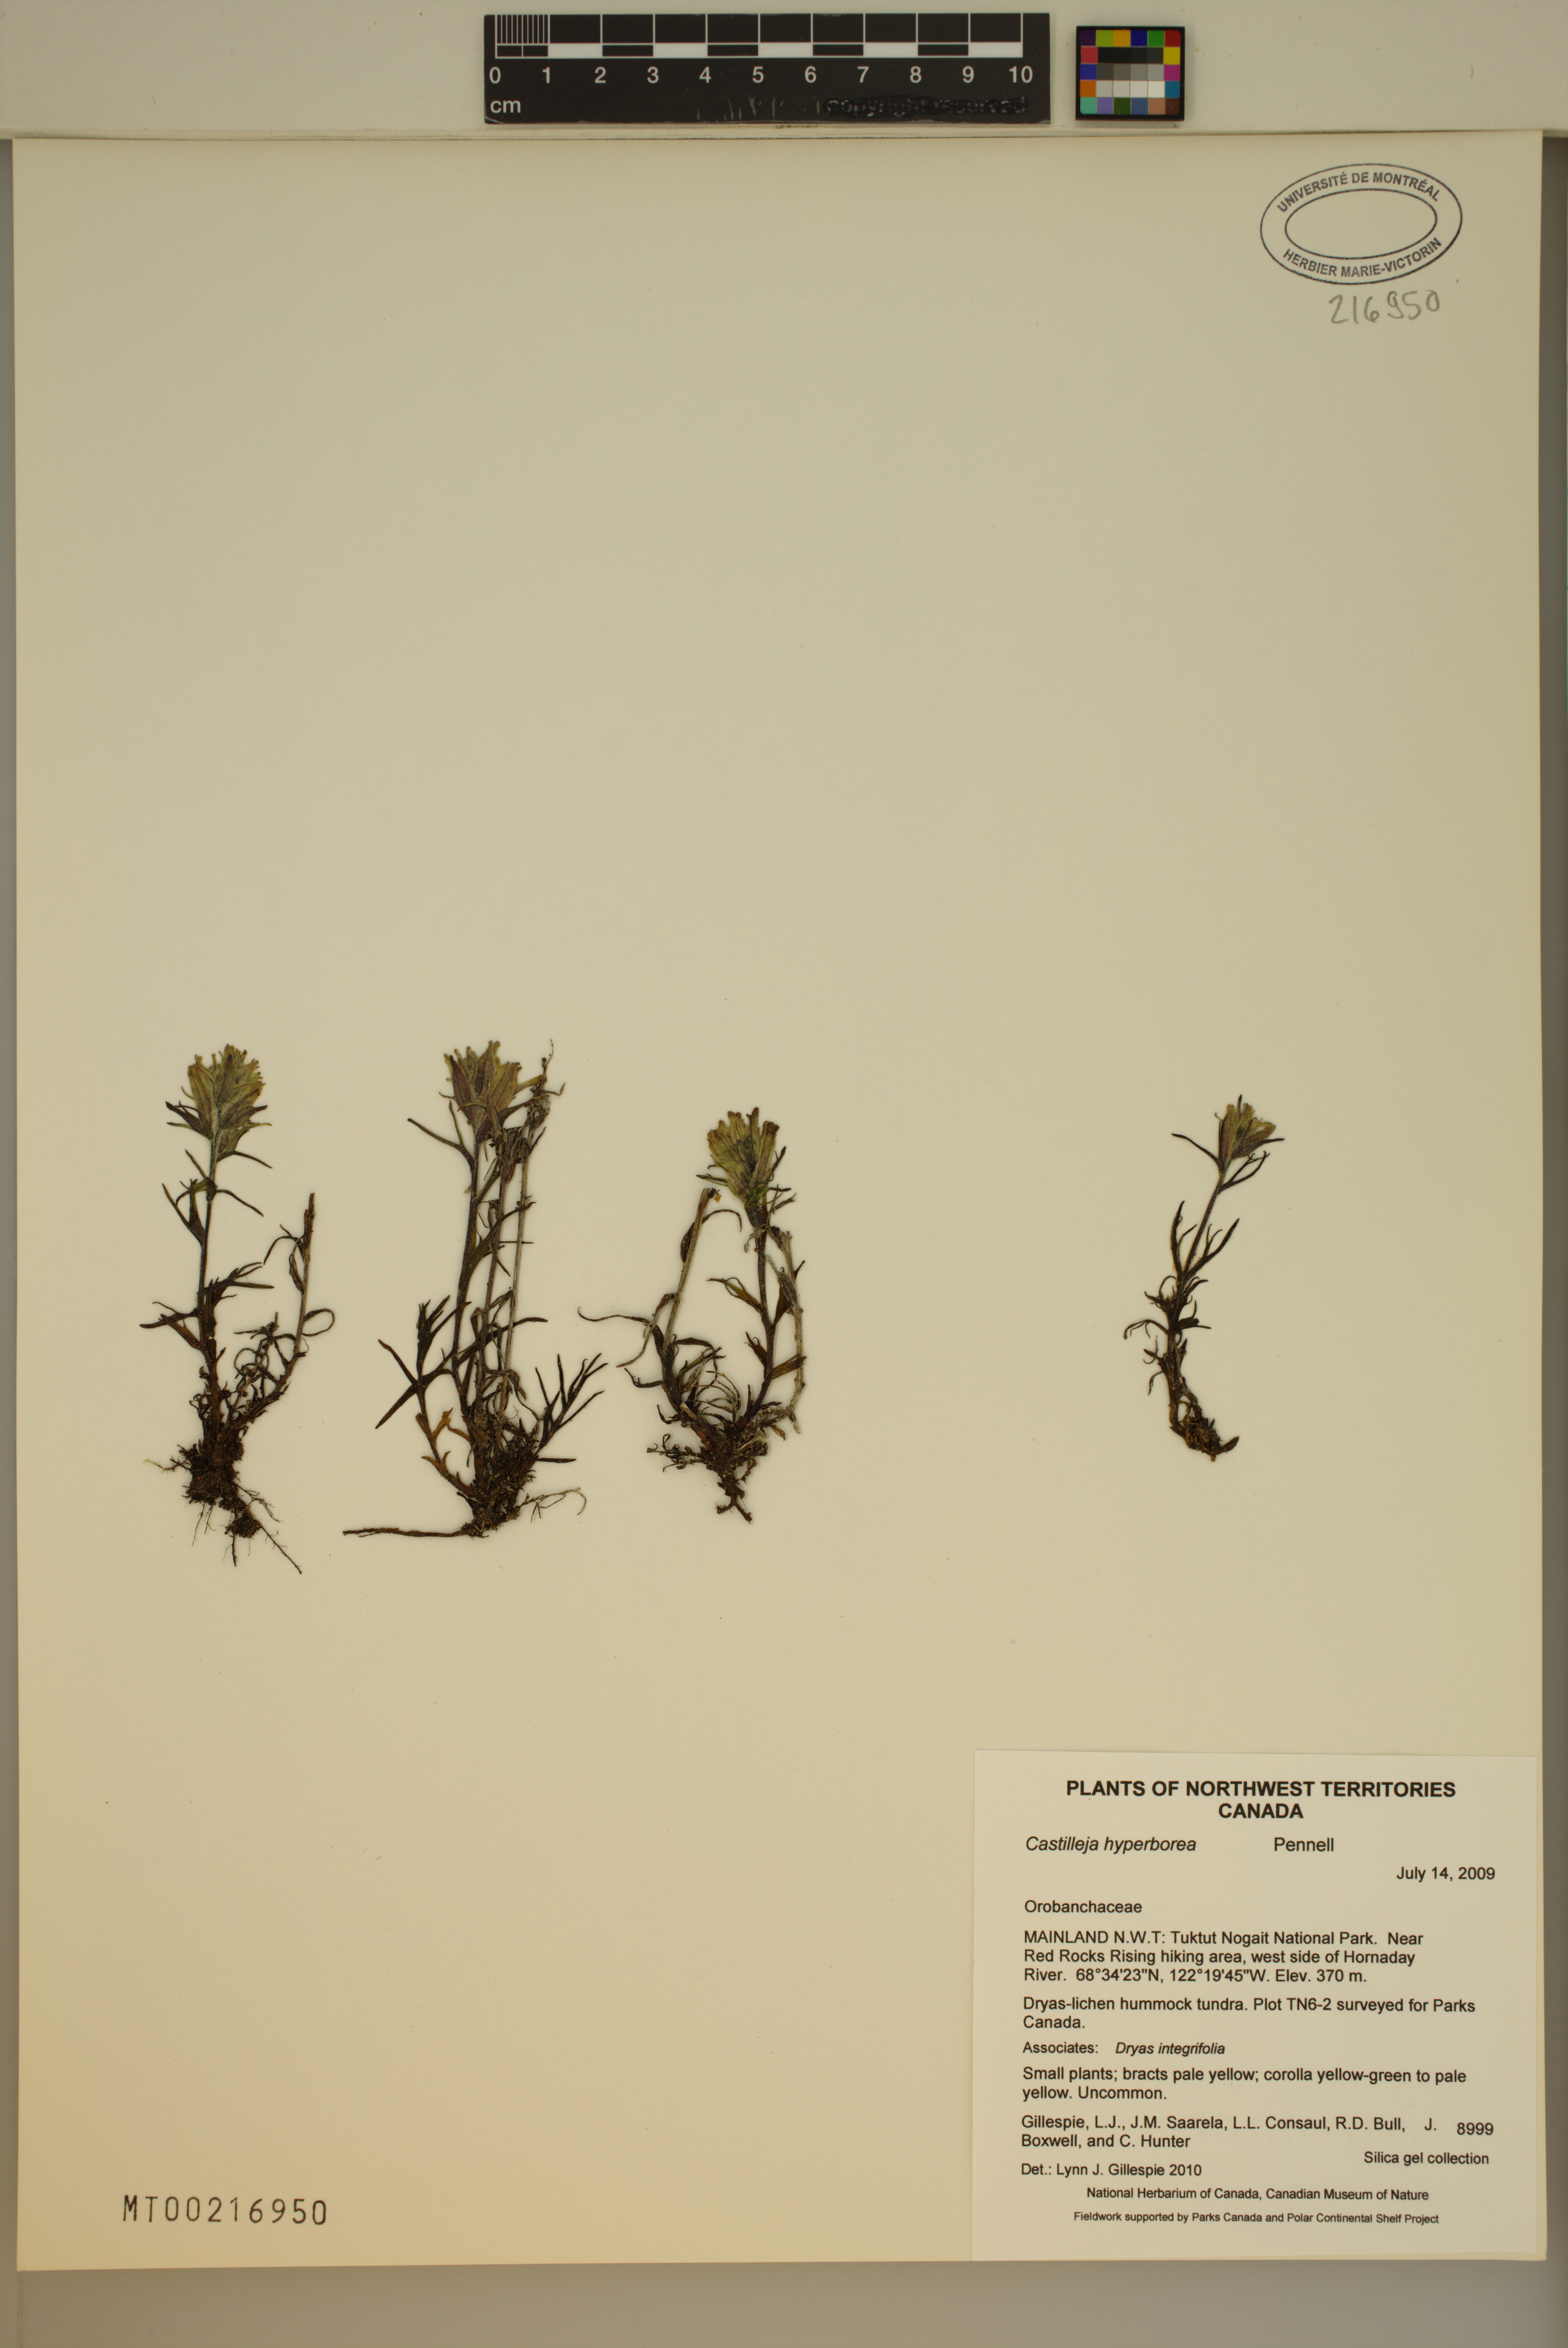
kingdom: Plantae
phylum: Tracheophyta
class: Magnoliopsida
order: Lamiales
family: Orobanchaceae
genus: Castilleja
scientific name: Castilleja hyperborea
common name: Northern paintbrush
